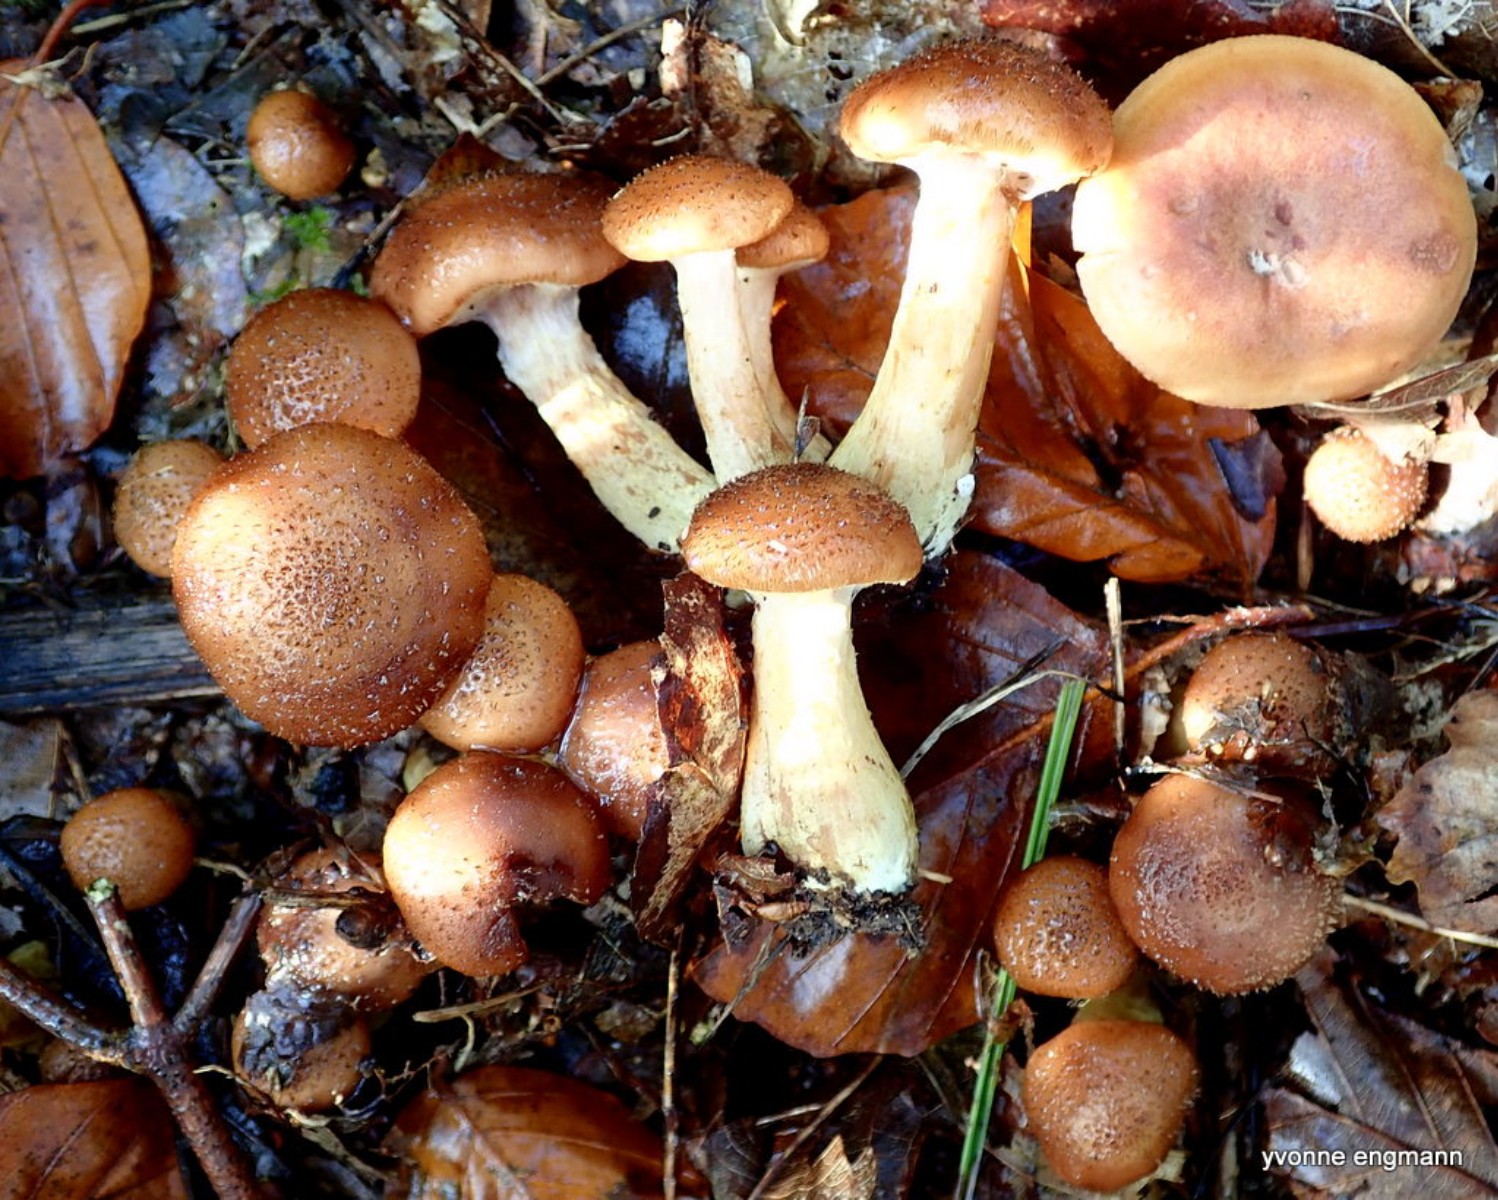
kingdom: Fungi
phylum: Basidiomycota
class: Agaricomycetes
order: Agaricales
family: Physalacriaceae
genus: Armillaria
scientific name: Armillaria lutea
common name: køllestokket honningsvamp
